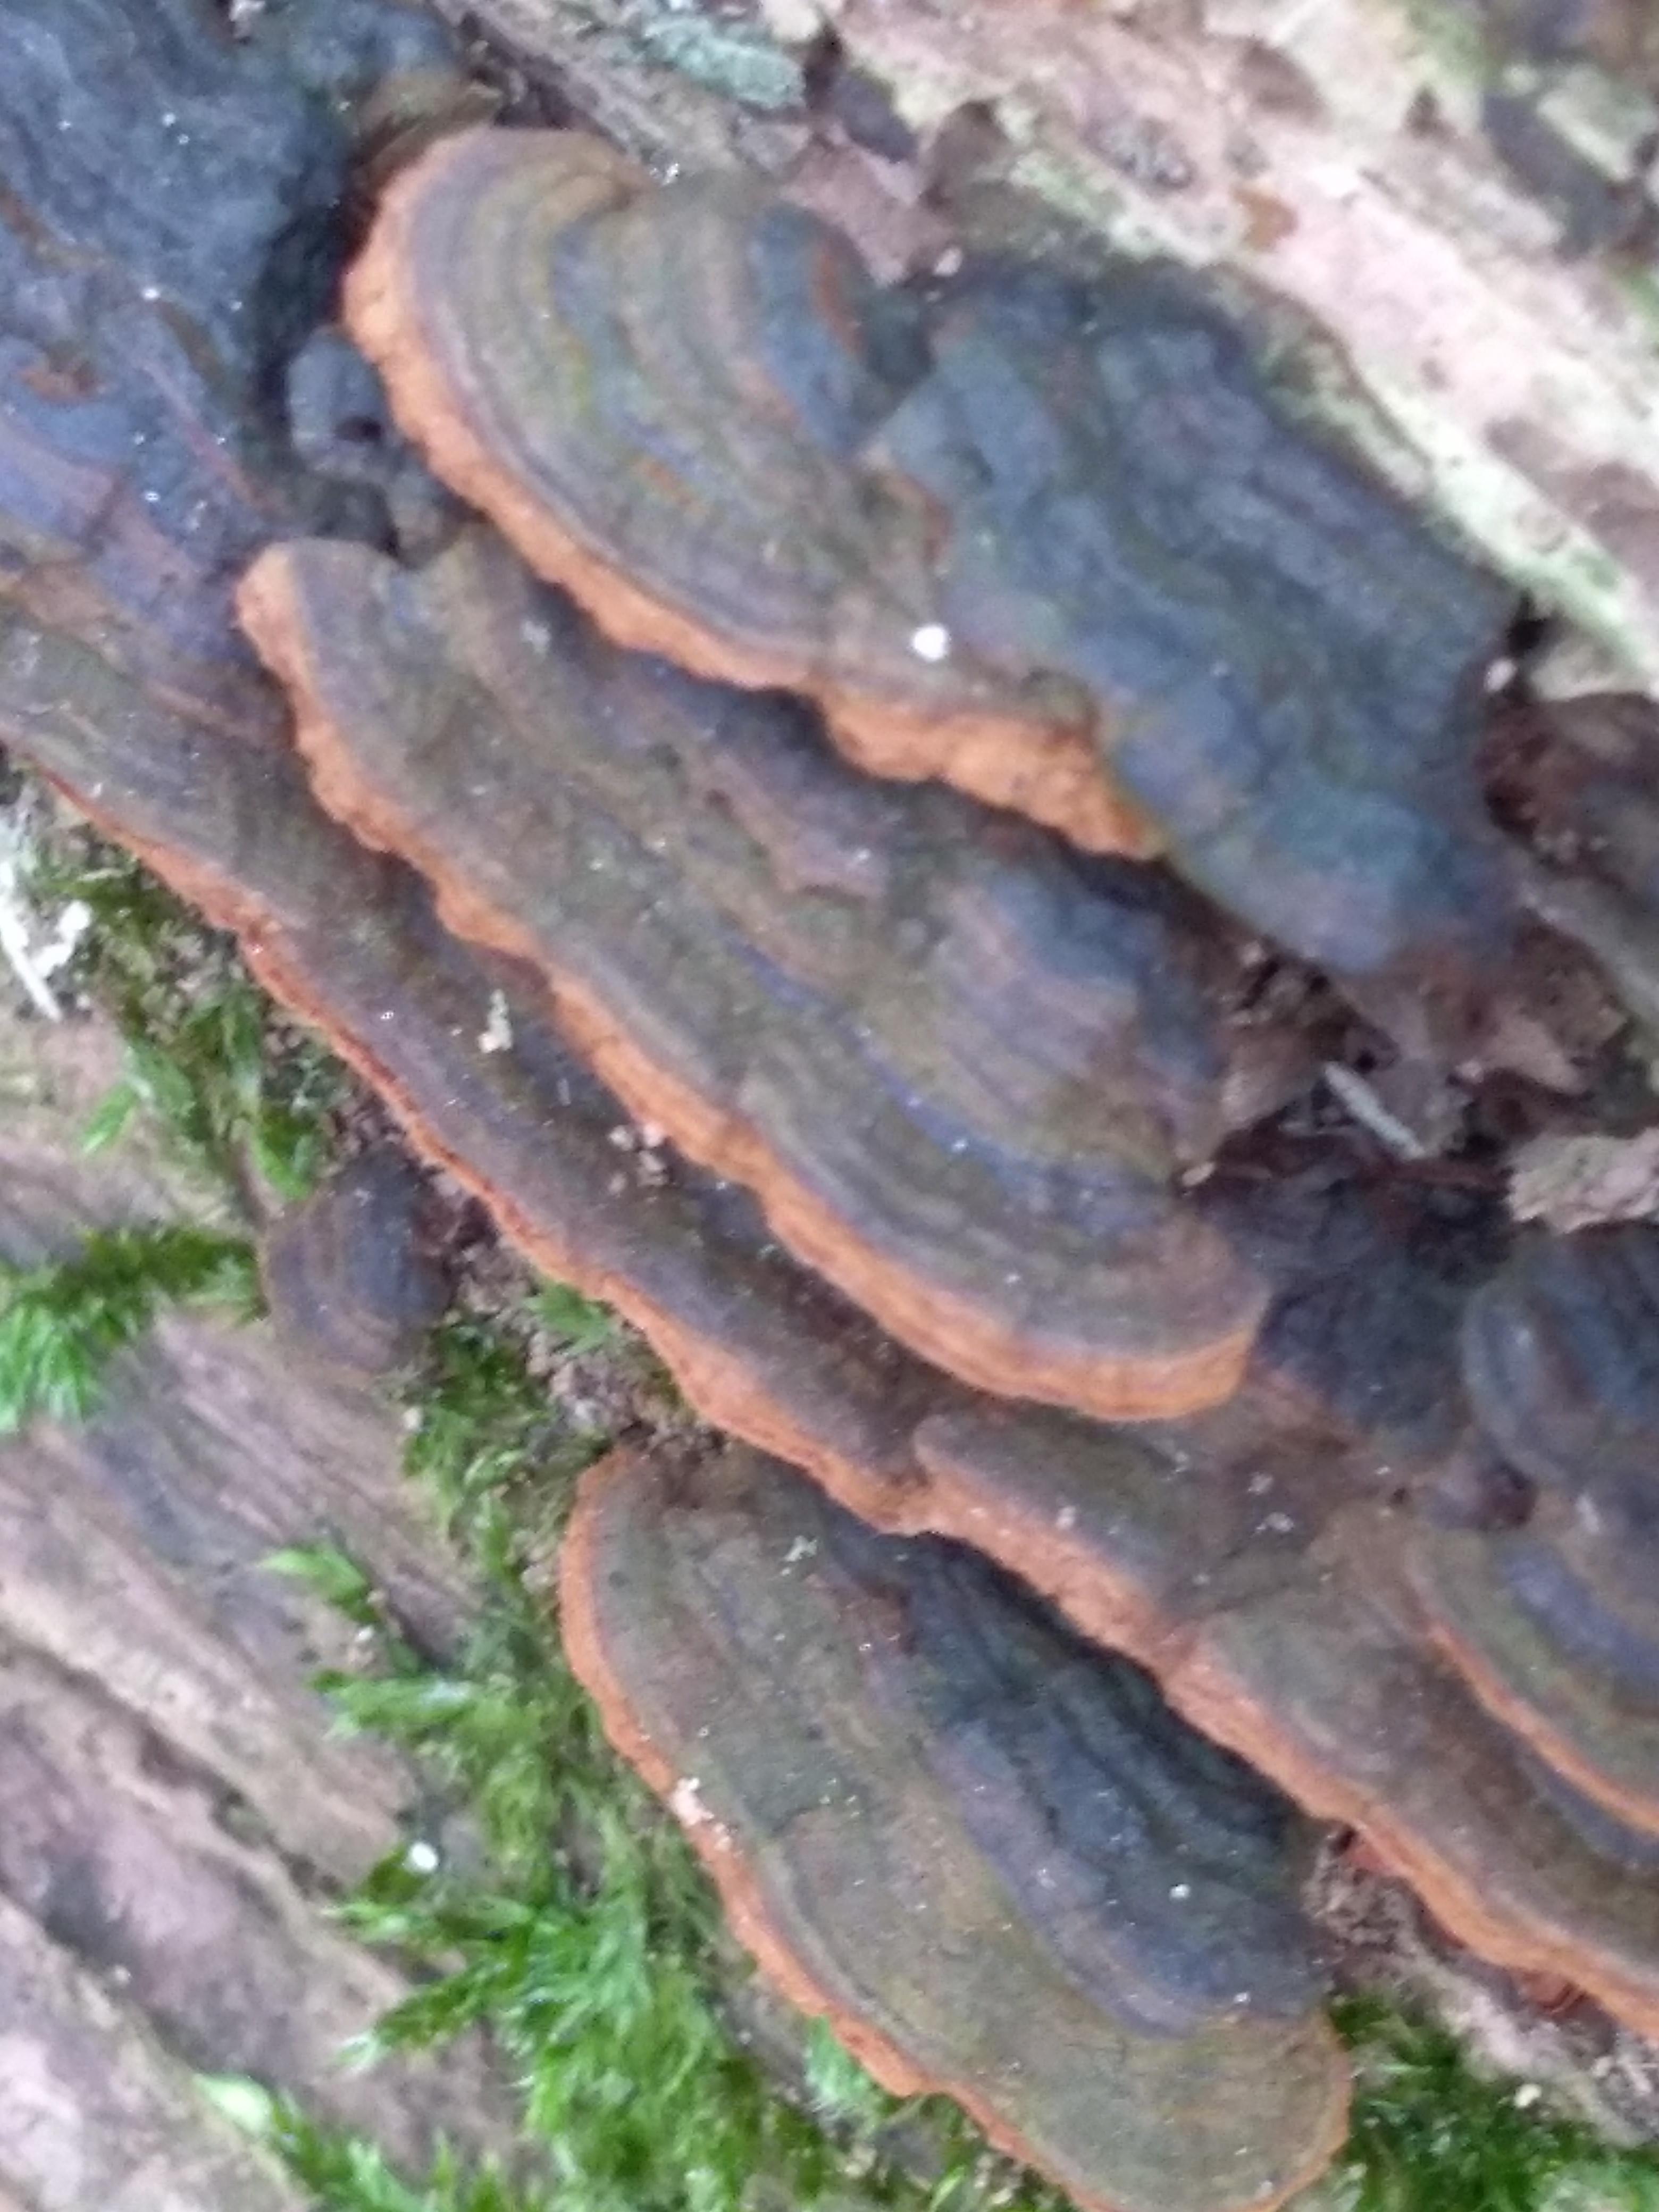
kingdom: Fungi
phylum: Basidiomycota
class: Agaricomycetes
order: Hymenochaetales
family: Hymenochaetaceae
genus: Hymenochaete
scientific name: Hymenochaete rubiginosa
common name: stiv ruslædersvamp
